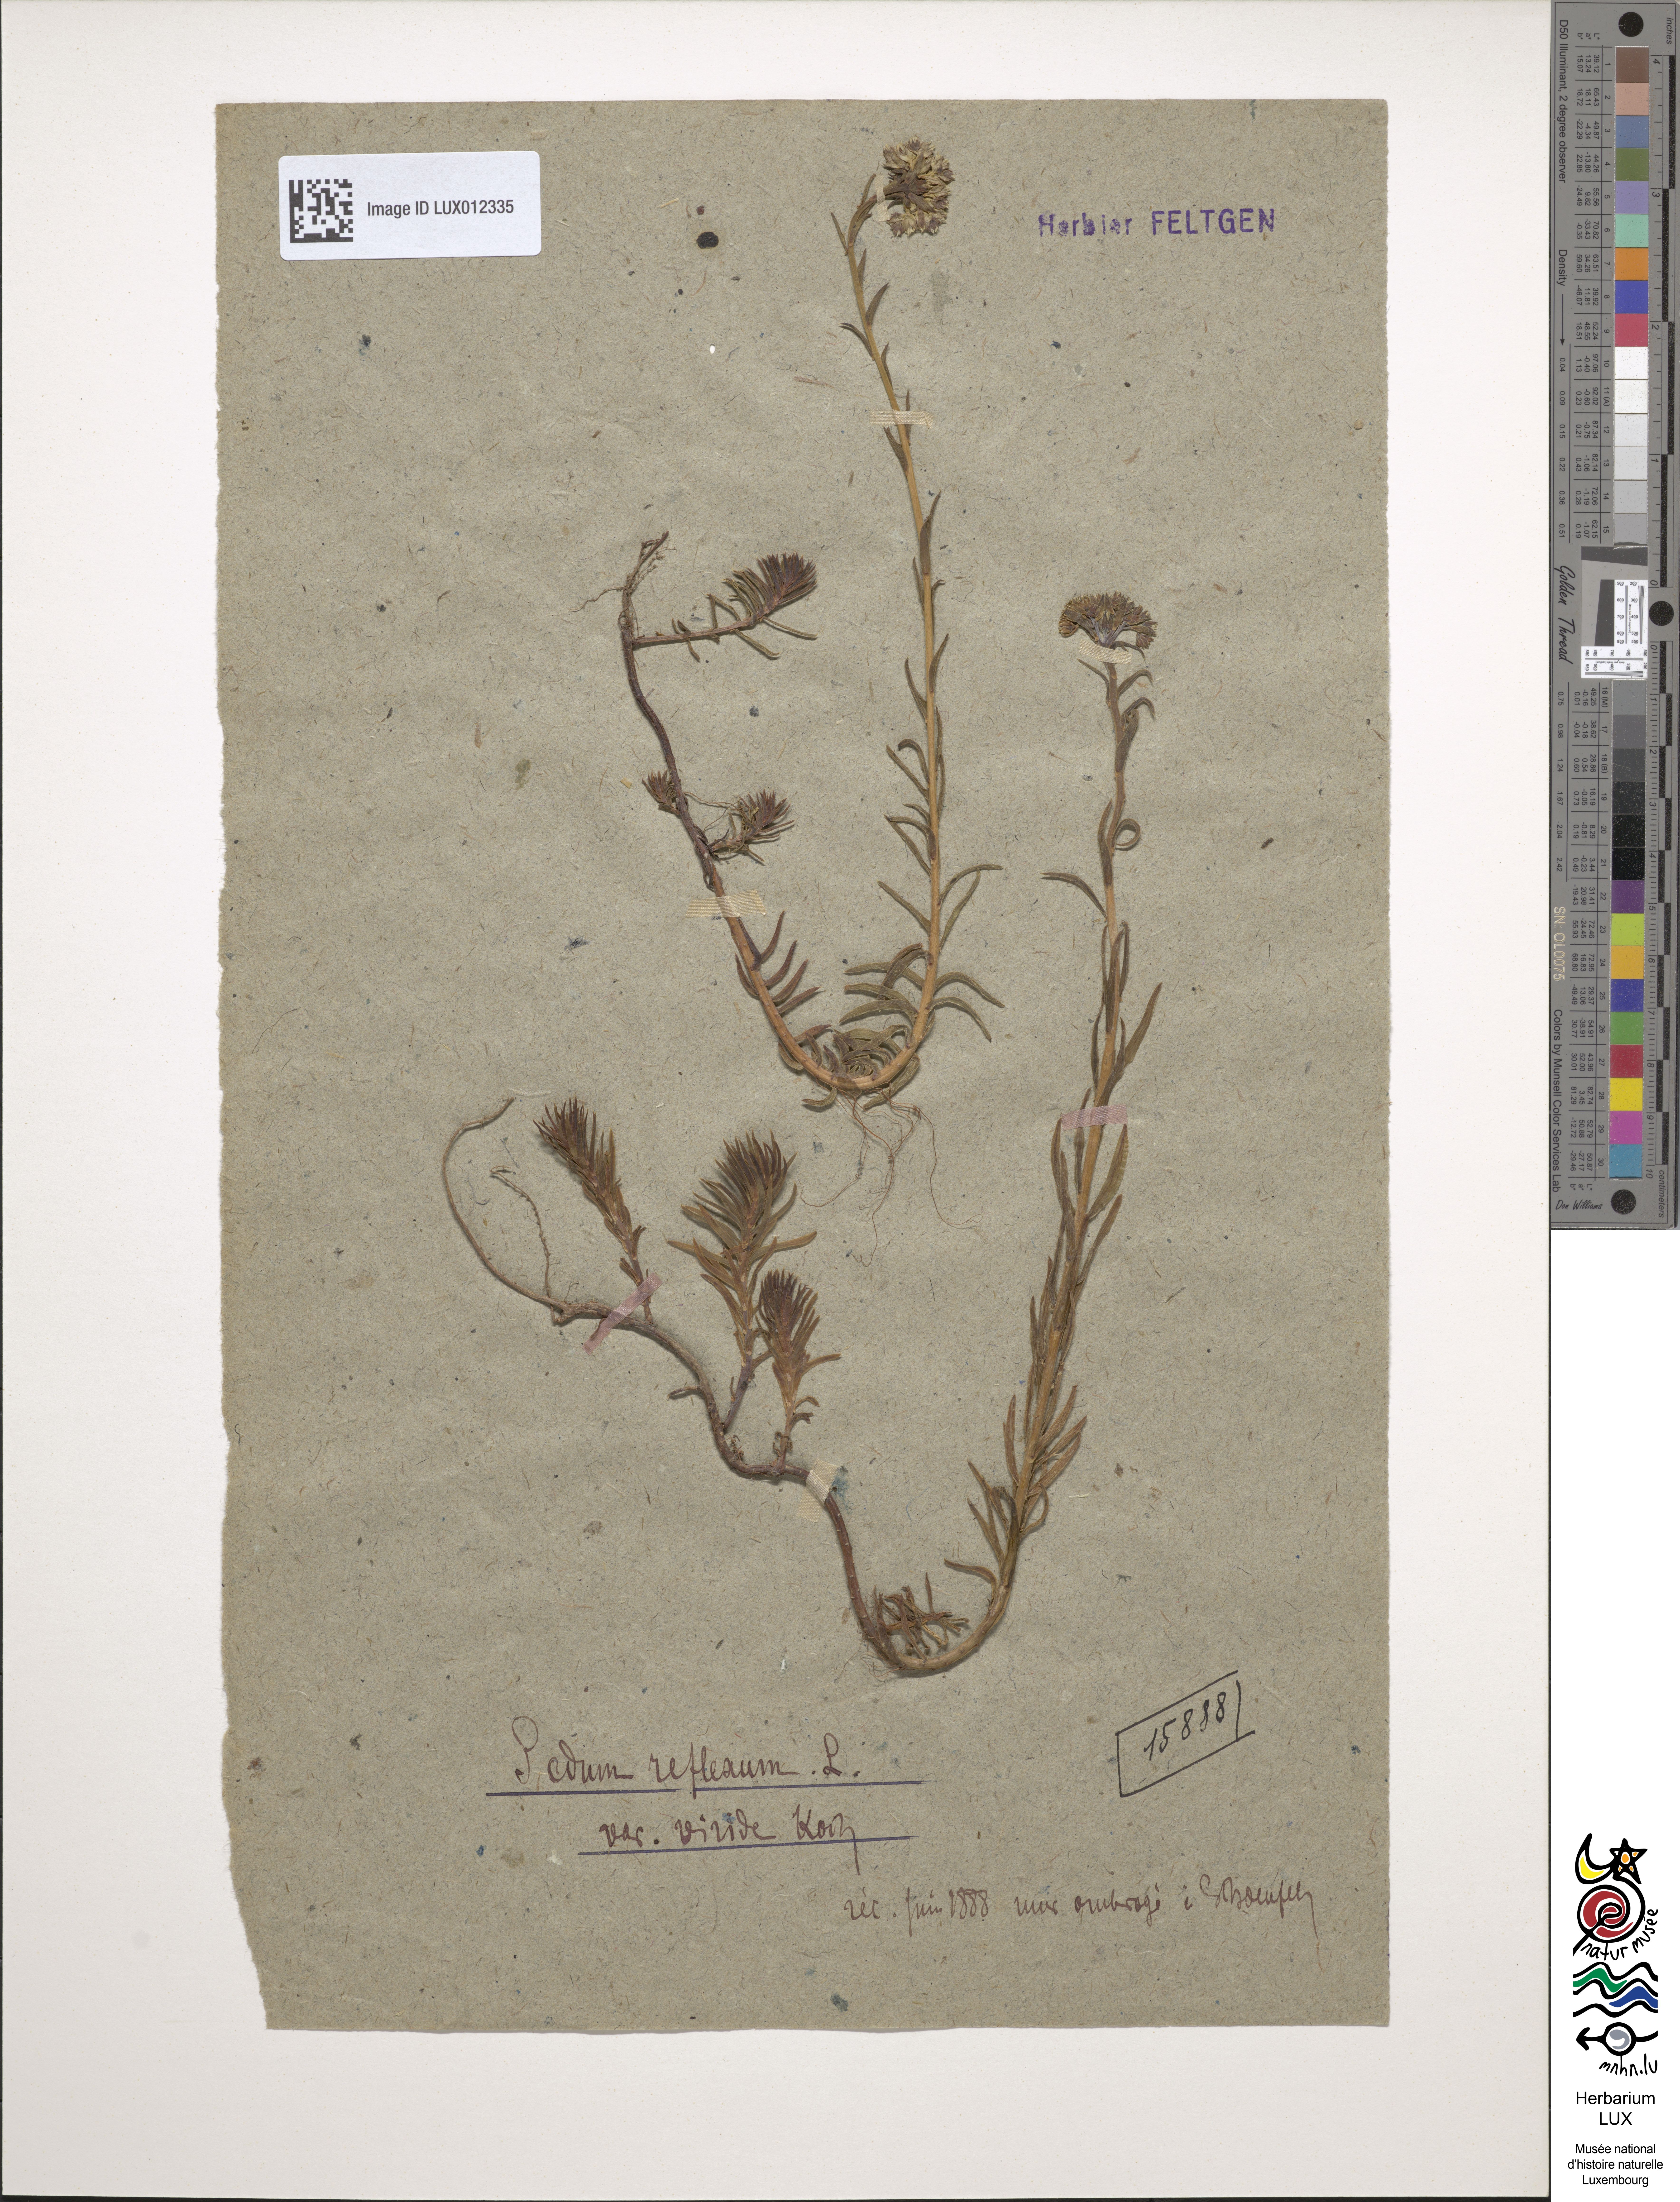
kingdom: Plantae
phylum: Tracheophyta
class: Magnoliopsida
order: Saxifragales
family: Crassulaceae
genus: Petrosedum
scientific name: Petrosedum rupestre
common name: Jenny's stonecrop
